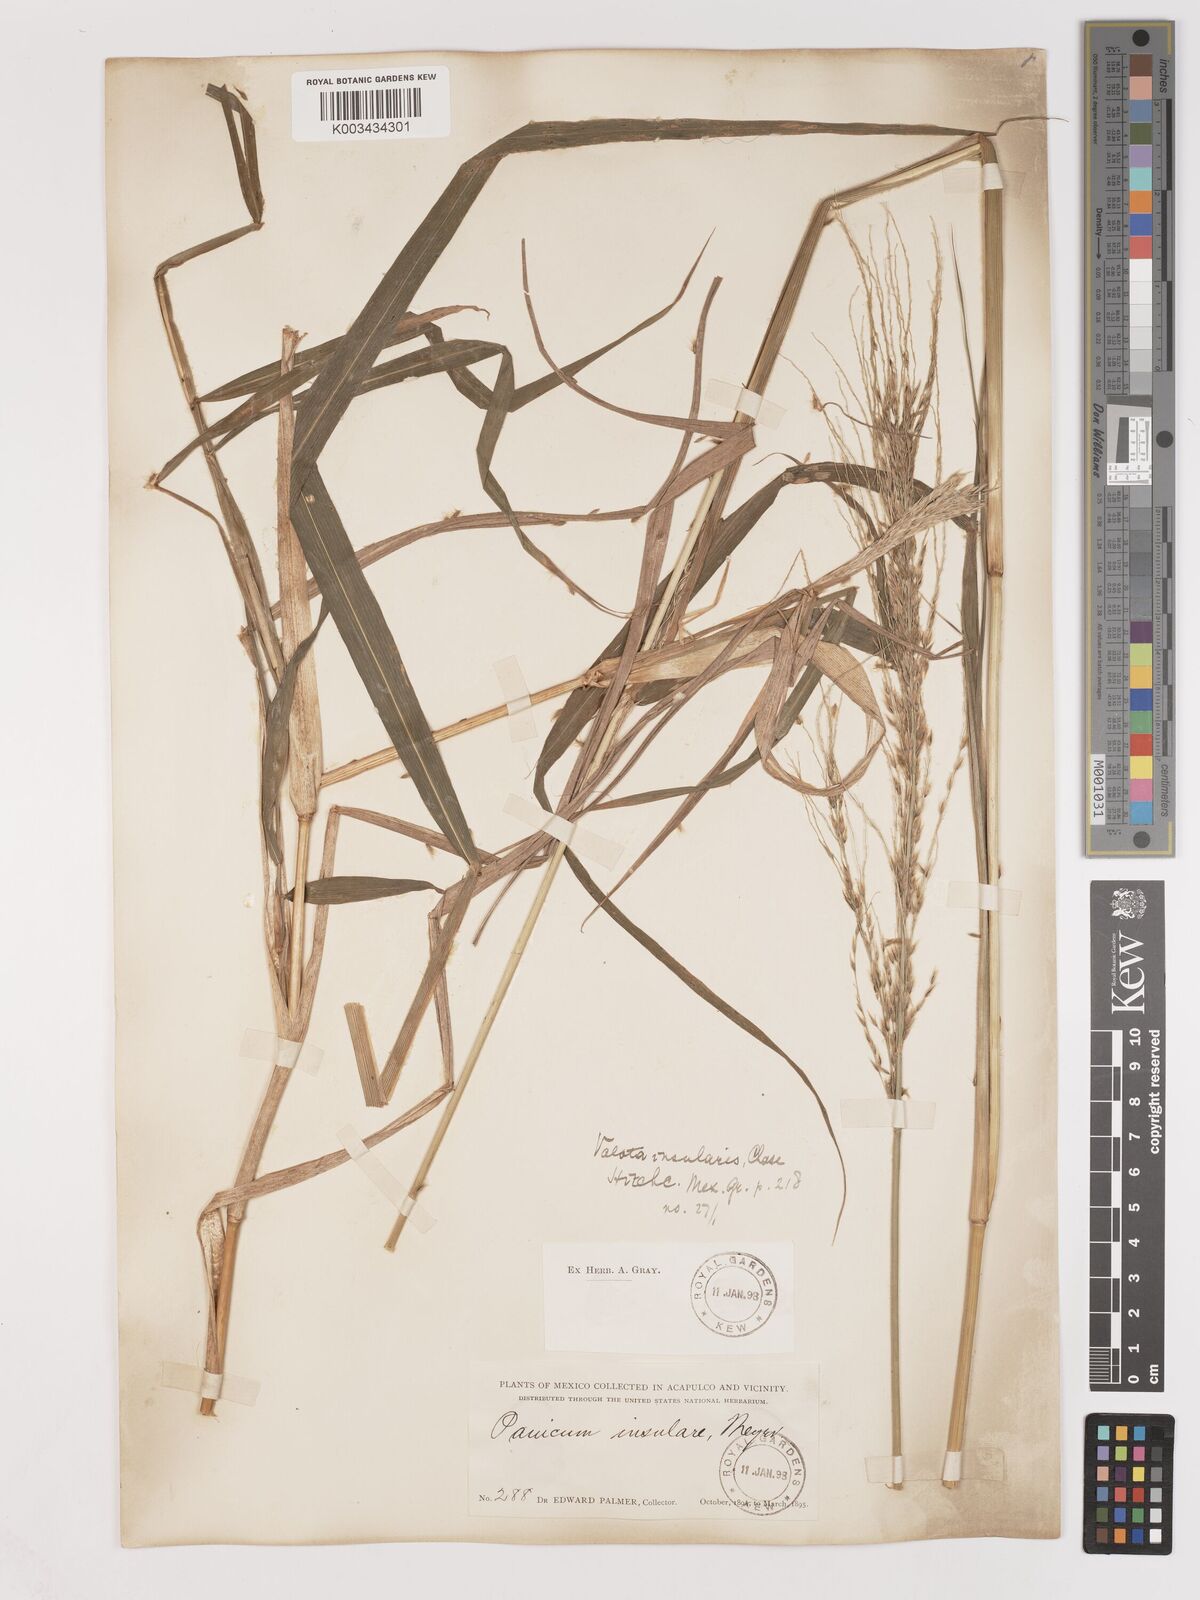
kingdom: Plantae
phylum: Tracheophyta
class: Liliopsida
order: Poales
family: Poaceae
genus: Digitaria
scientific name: Digitaria insularis
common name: Sourgrass
